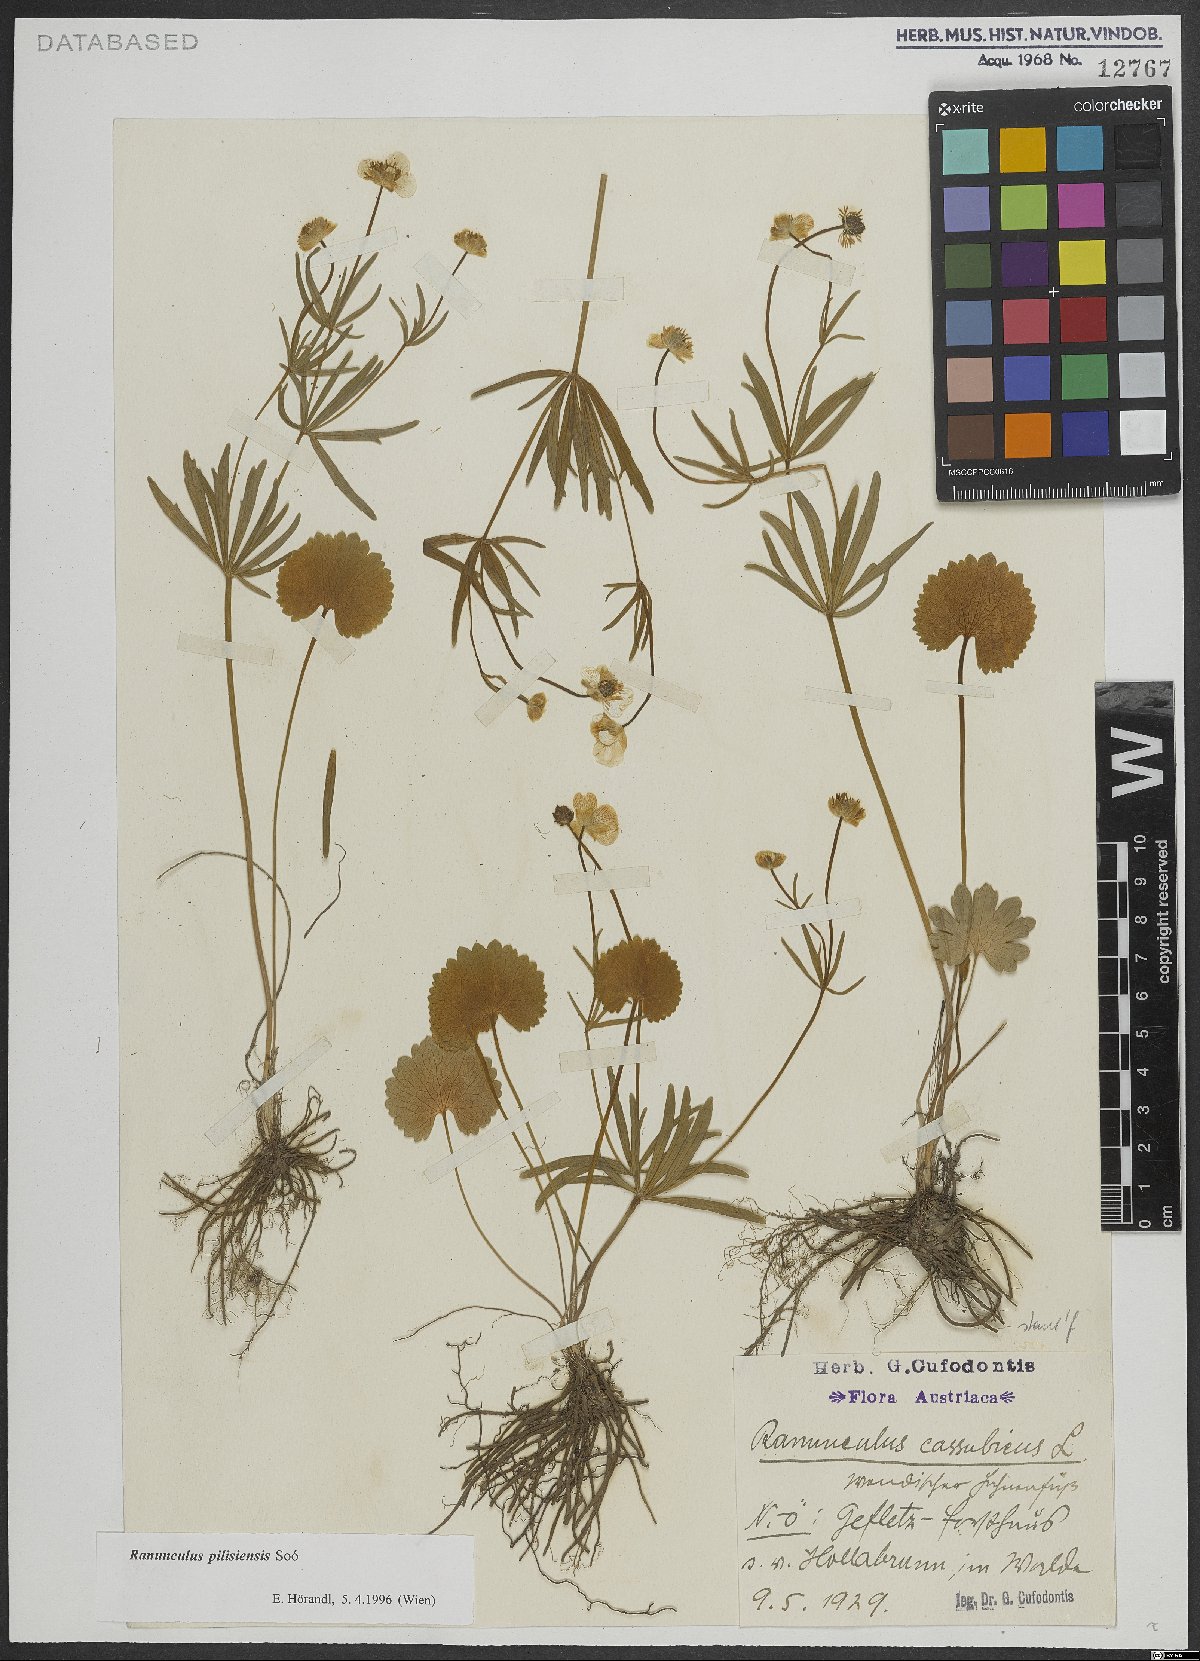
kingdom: Plantae
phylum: Tracheophyta
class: Magnoliopsida
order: Ranunculales
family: Ranunculaceae
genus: Ranunculus
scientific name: Ranunculus pilisiensis
